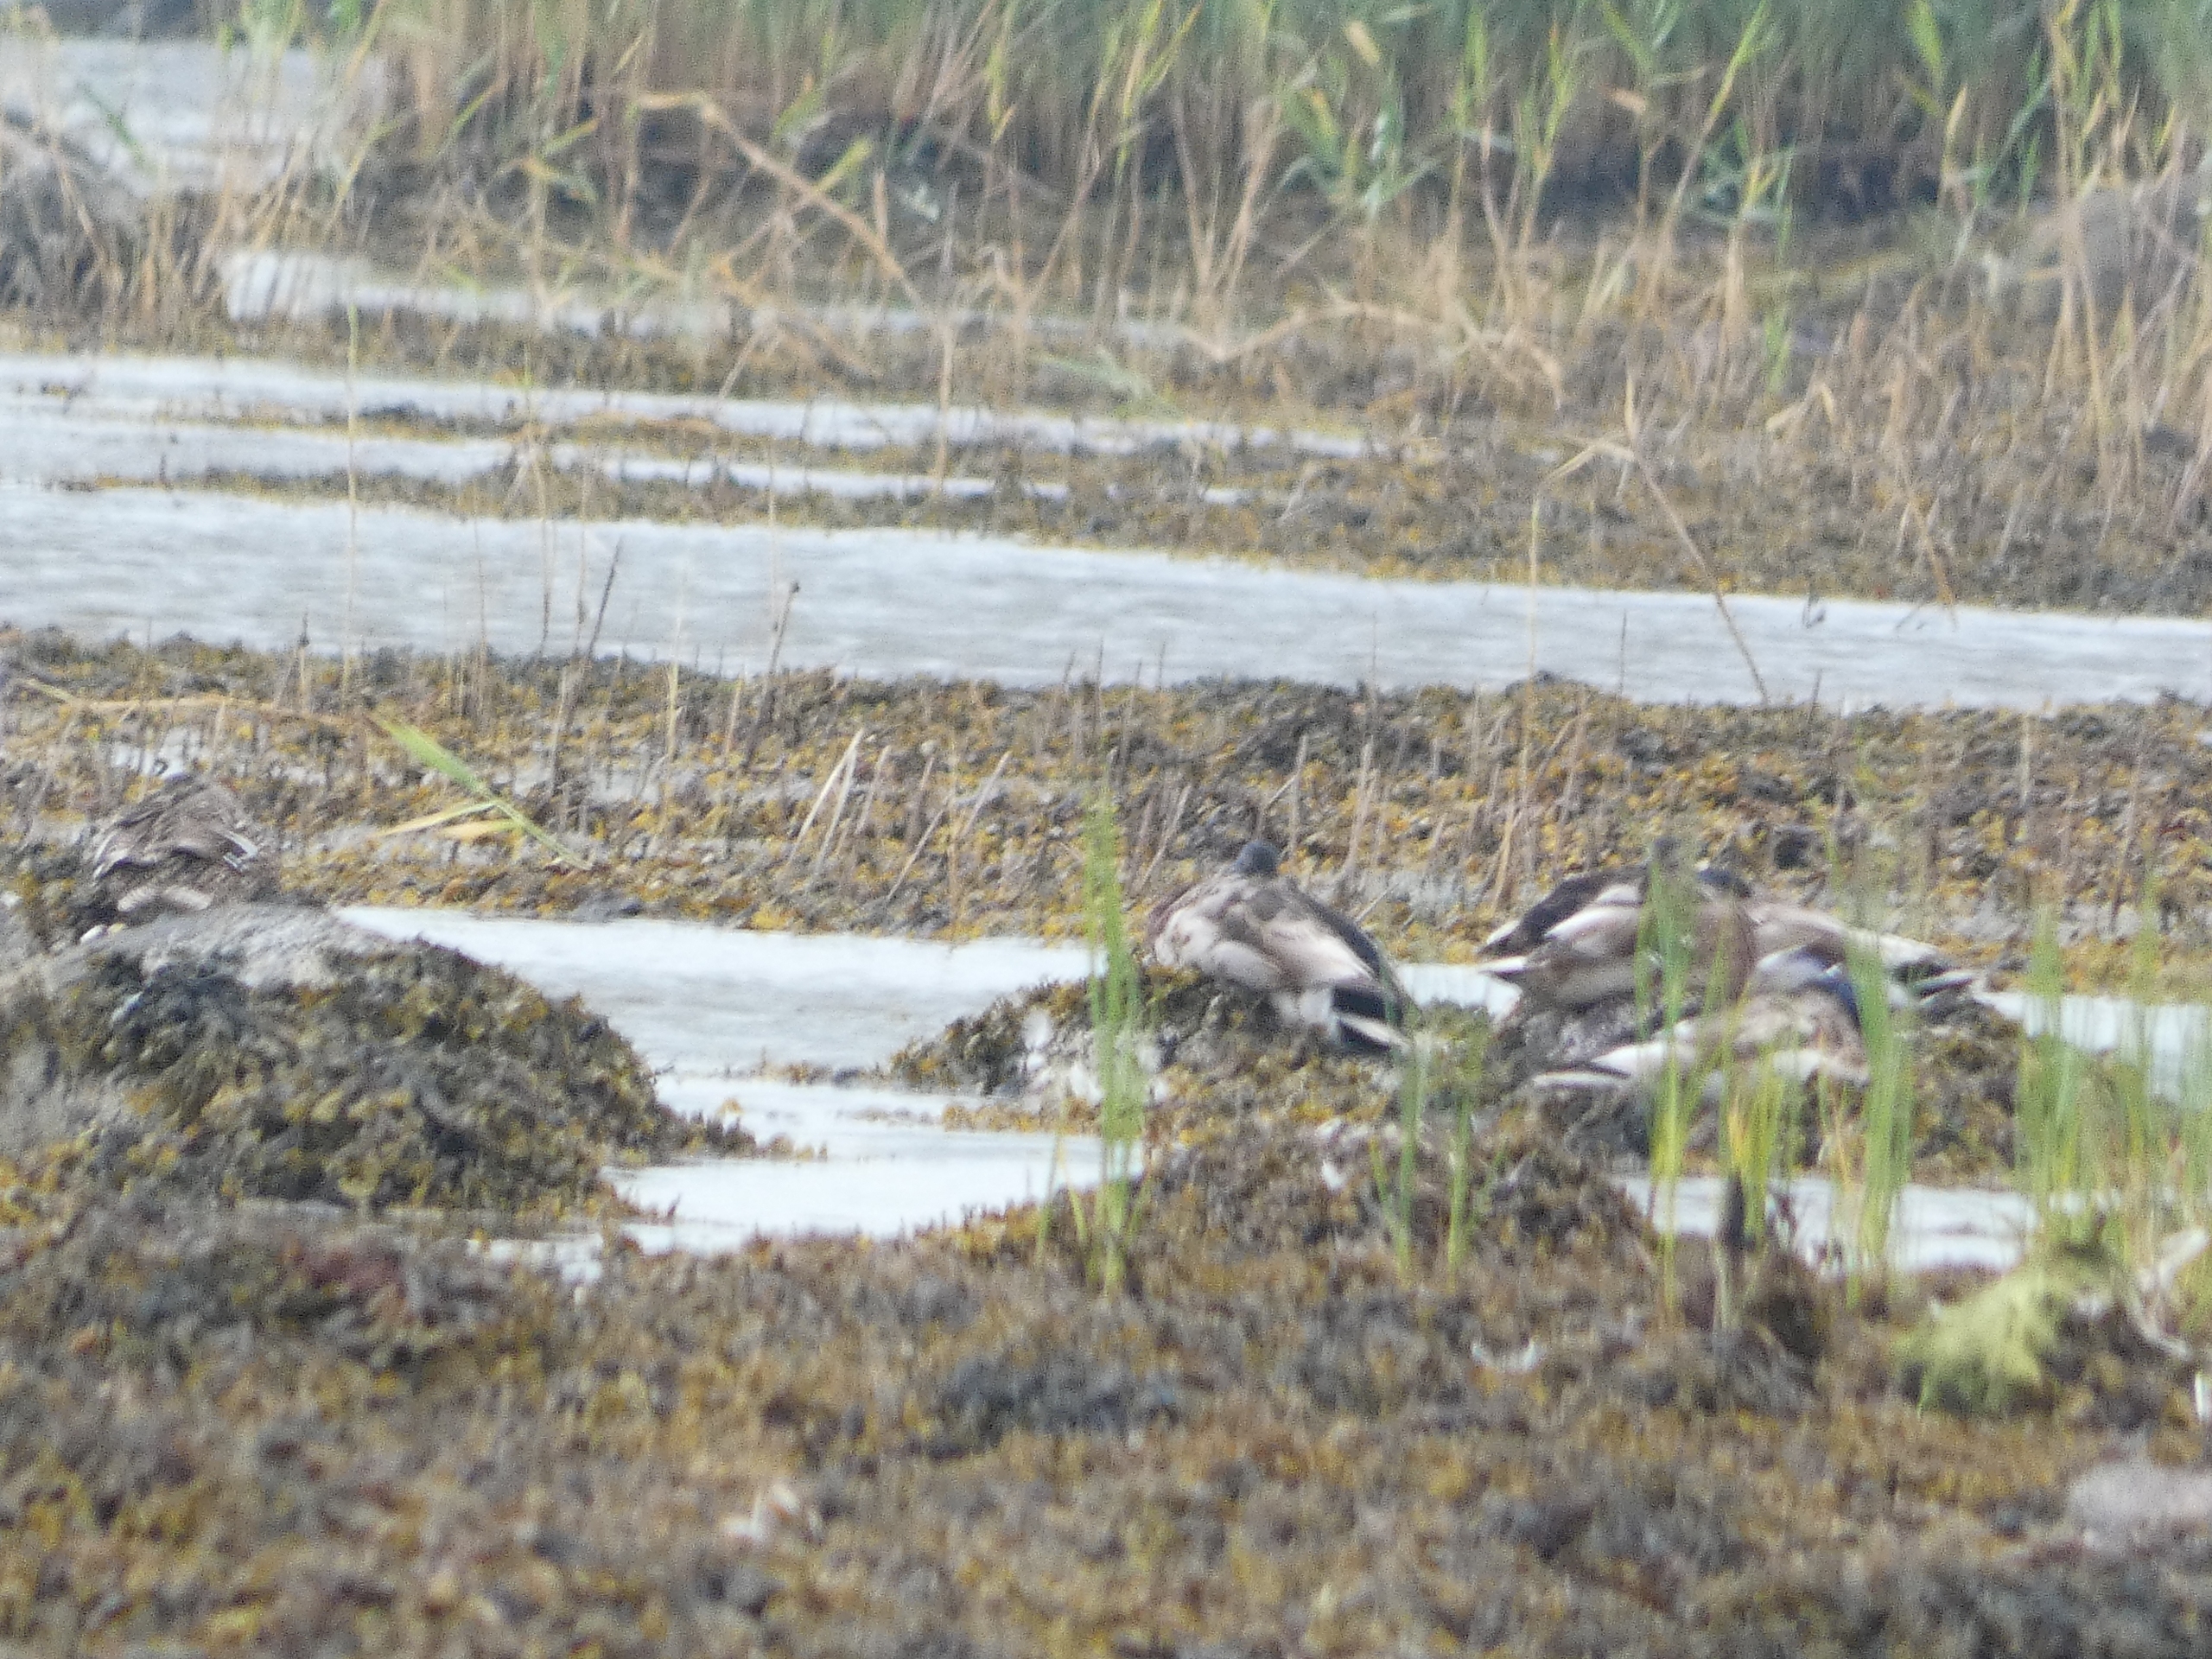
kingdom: Animalia
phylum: Chordata
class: Aves
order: Anseriformes
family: Anatidae
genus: Anas
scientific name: Anas platyrhynchos
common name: Gråand
